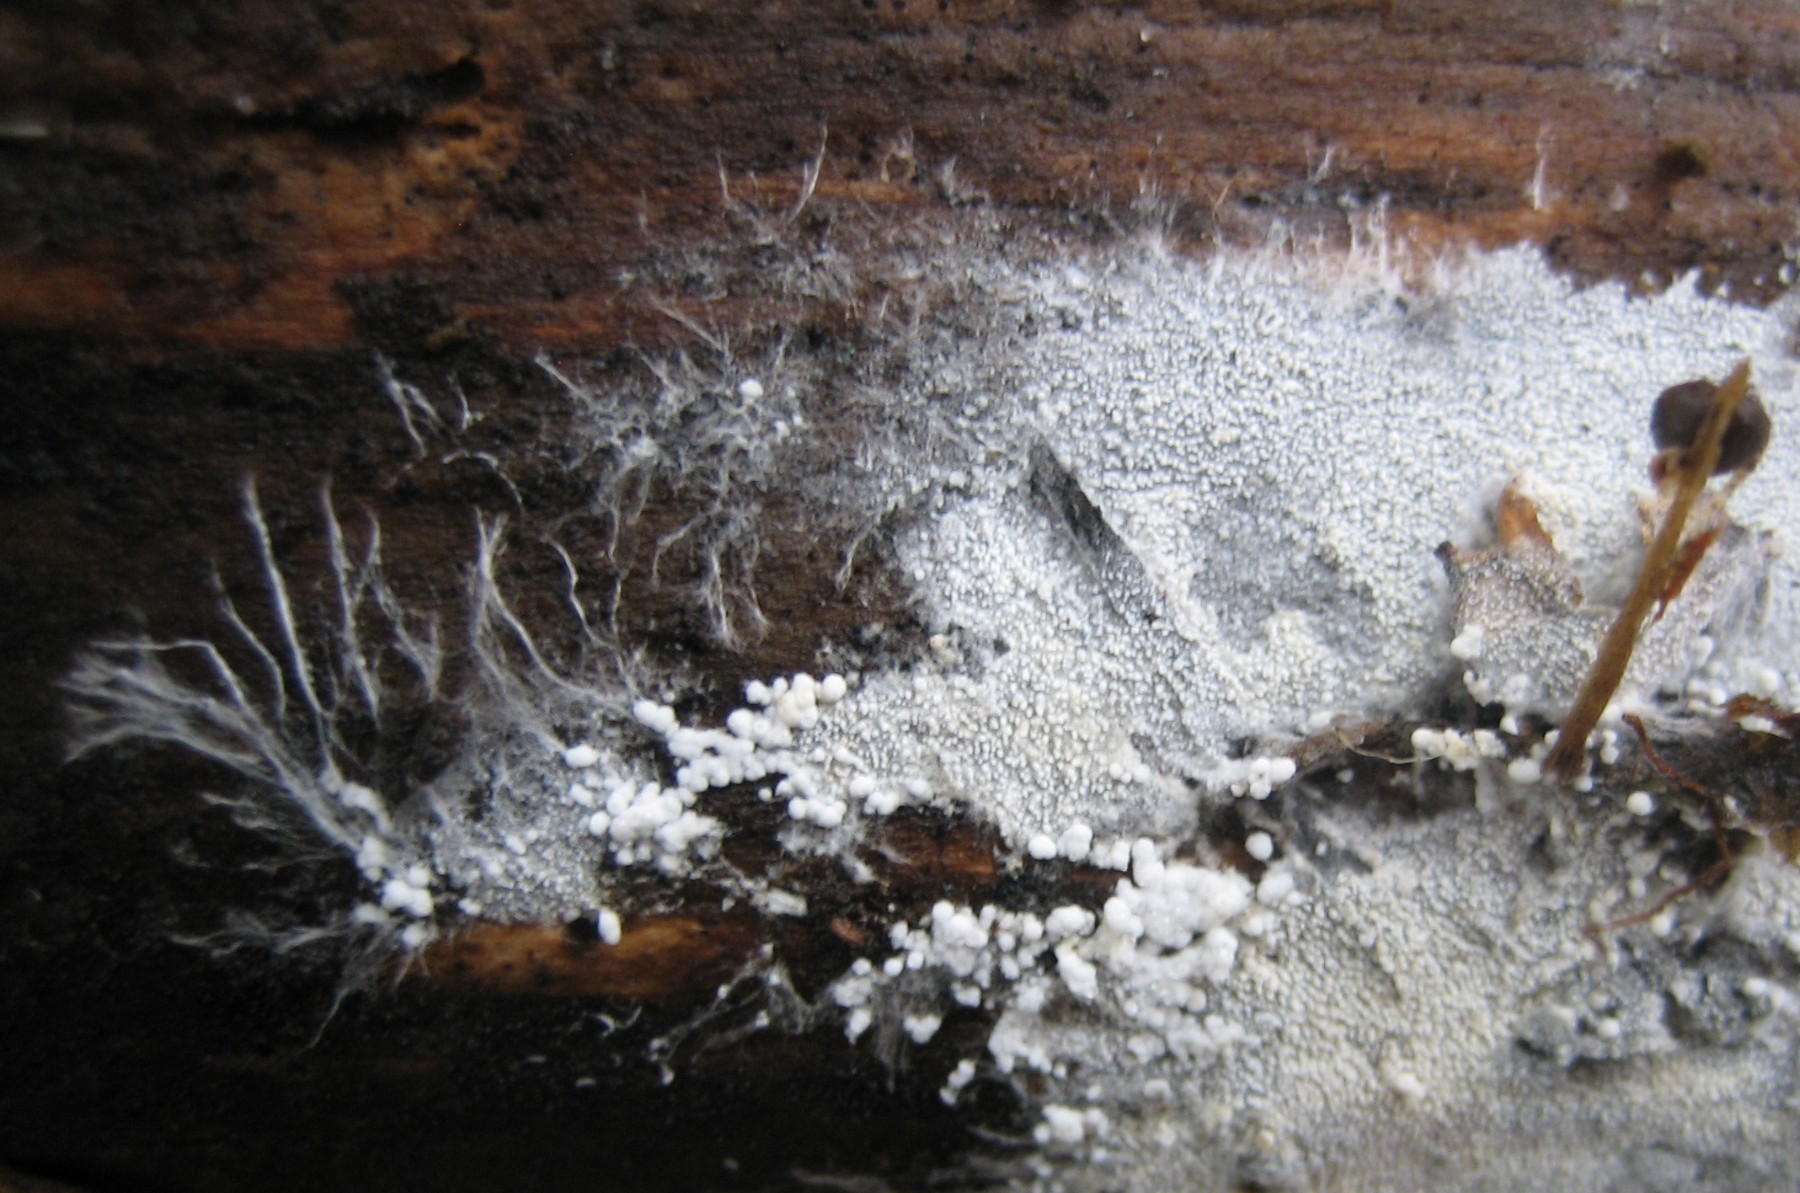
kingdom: Fungi
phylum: Basidiomycota
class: Agaricomycetes
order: Trechisporales
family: Sistotremataceae
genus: Trechispora
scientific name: Trechispora stevensonii
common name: støvende vathinde
